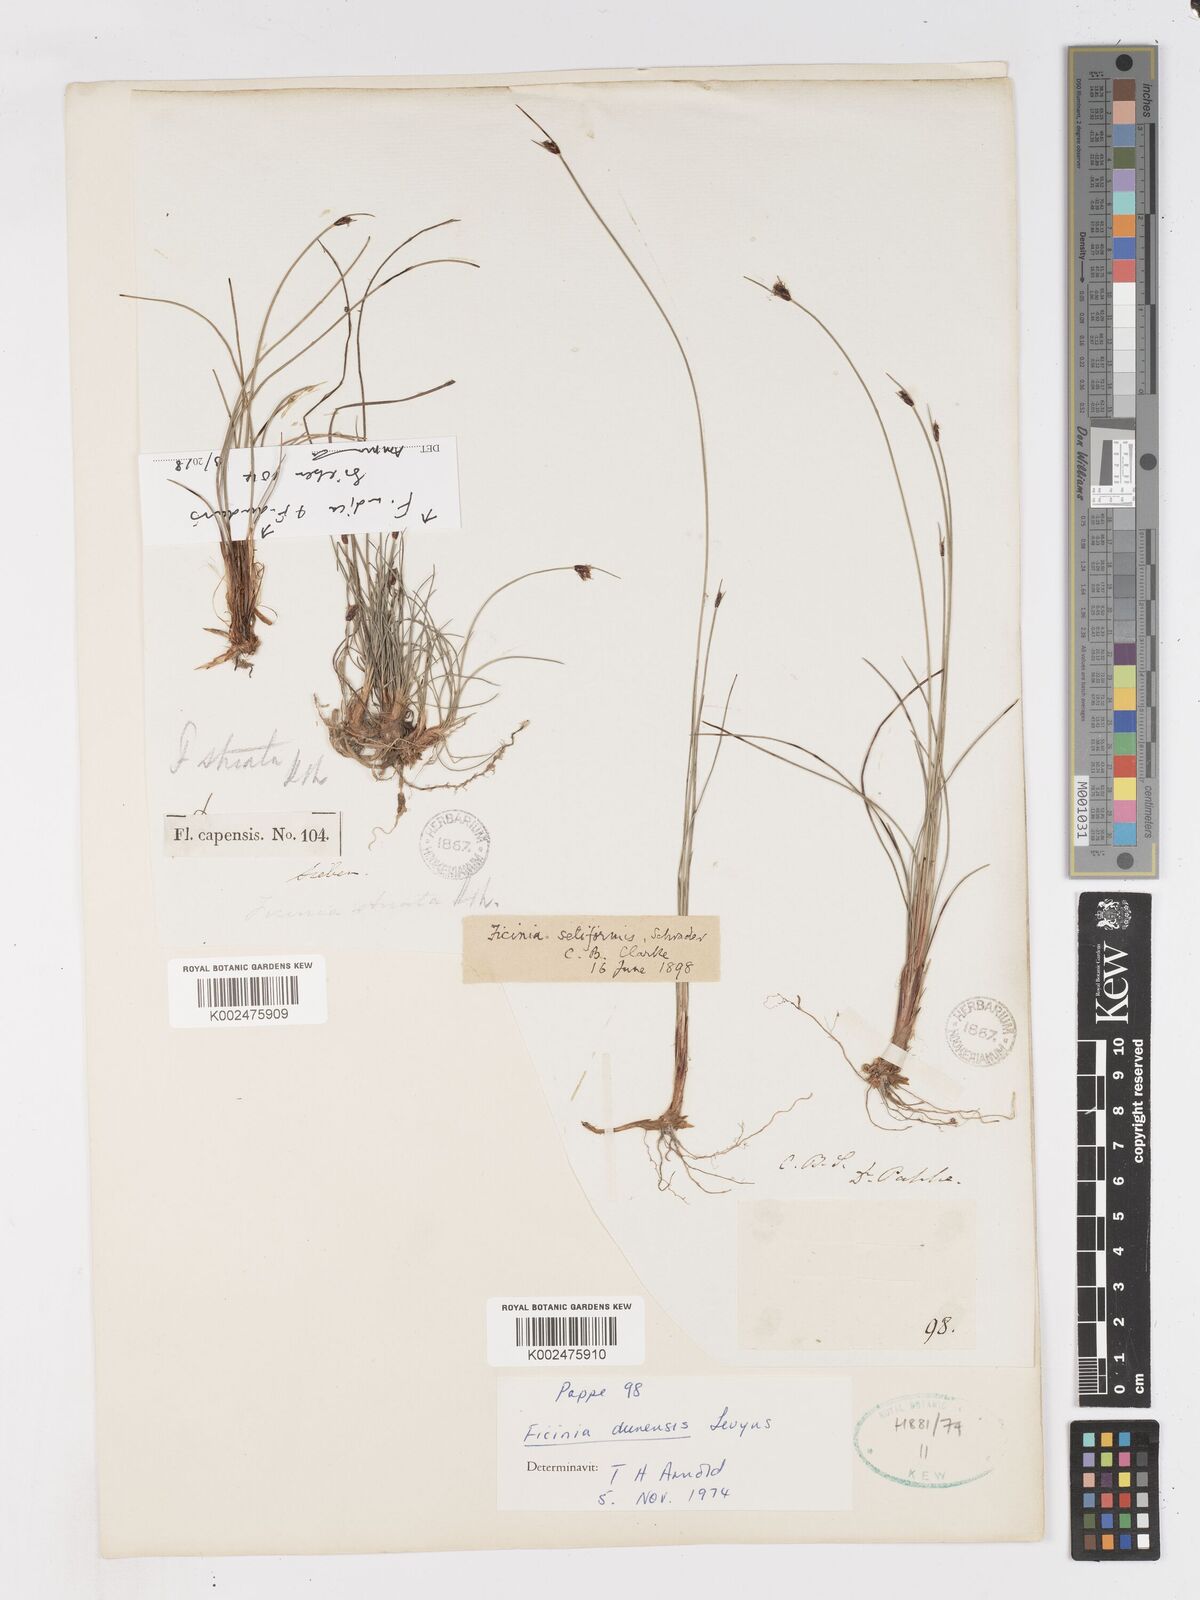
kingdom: Plantae
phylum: Tracheophyta
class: Liliopsida
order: Poales
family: Cyperaceae
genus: Ficinia
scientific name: Ficinia dunensis
